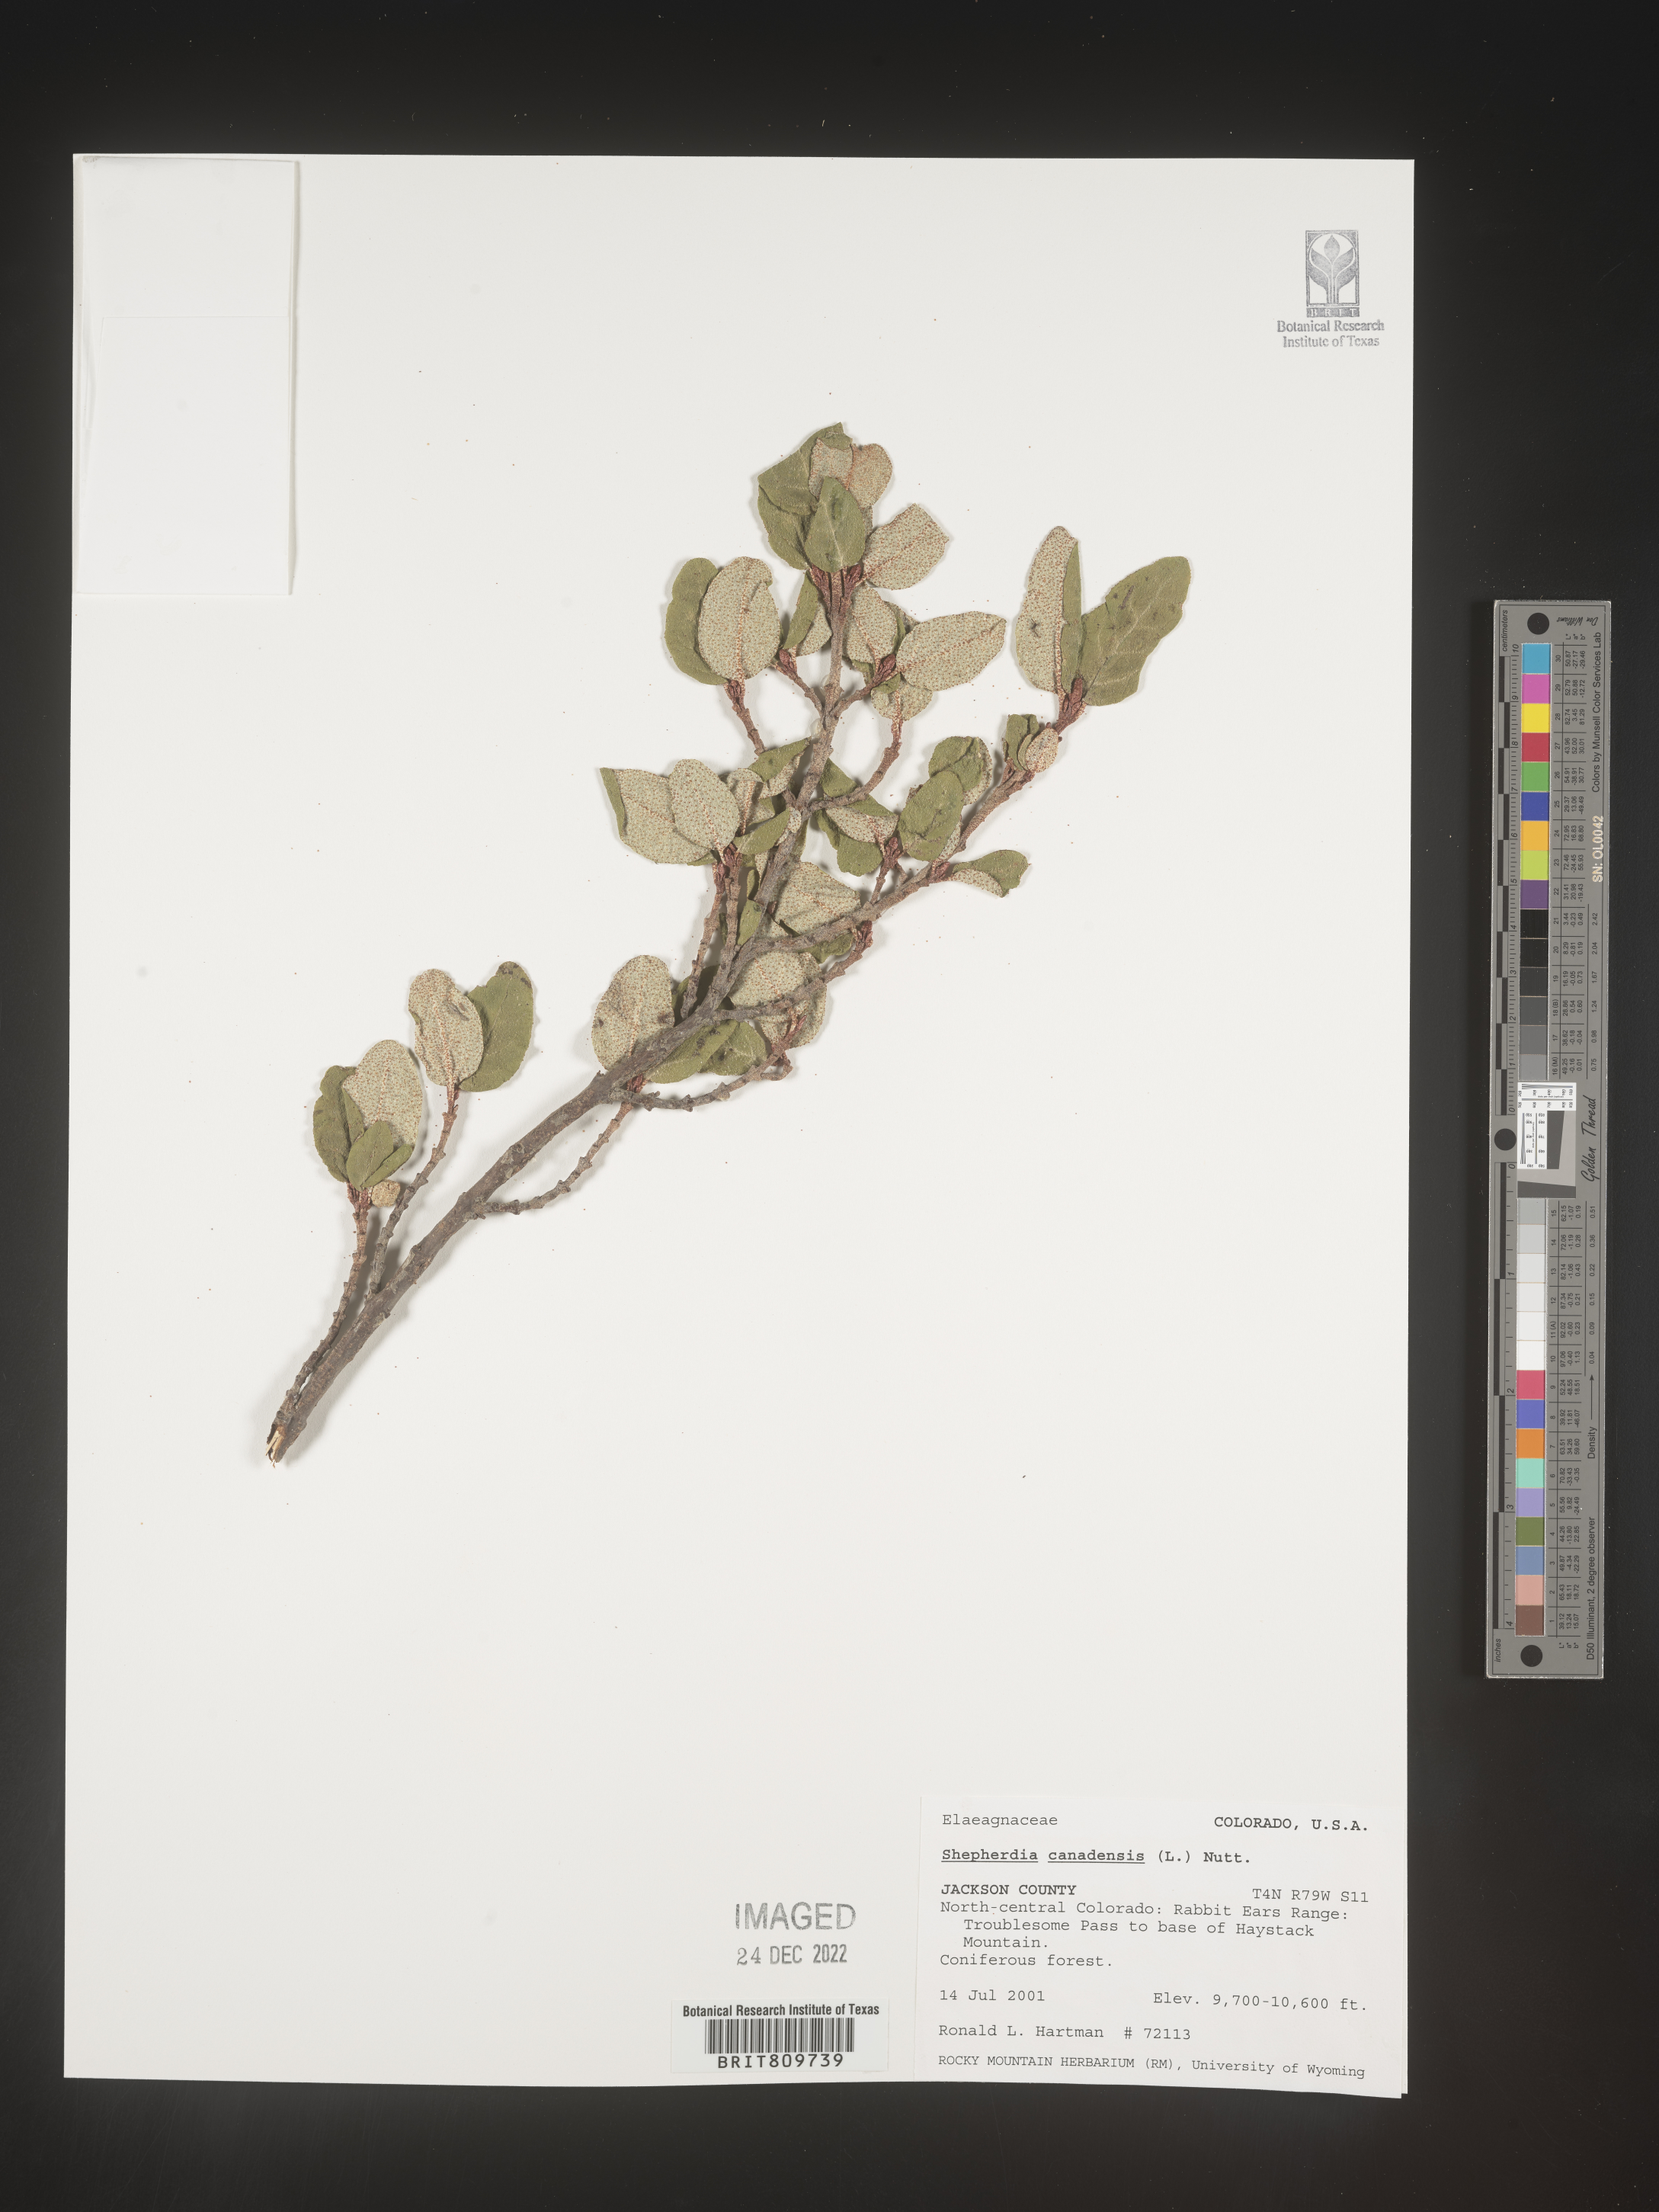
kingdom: Plantae
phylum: Tracheophyta
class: Magnoliopsida
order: Rosales
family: Elaeagnaceae
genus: Shepherdia
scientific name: Shepherdia canadensis
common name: Soapberry
